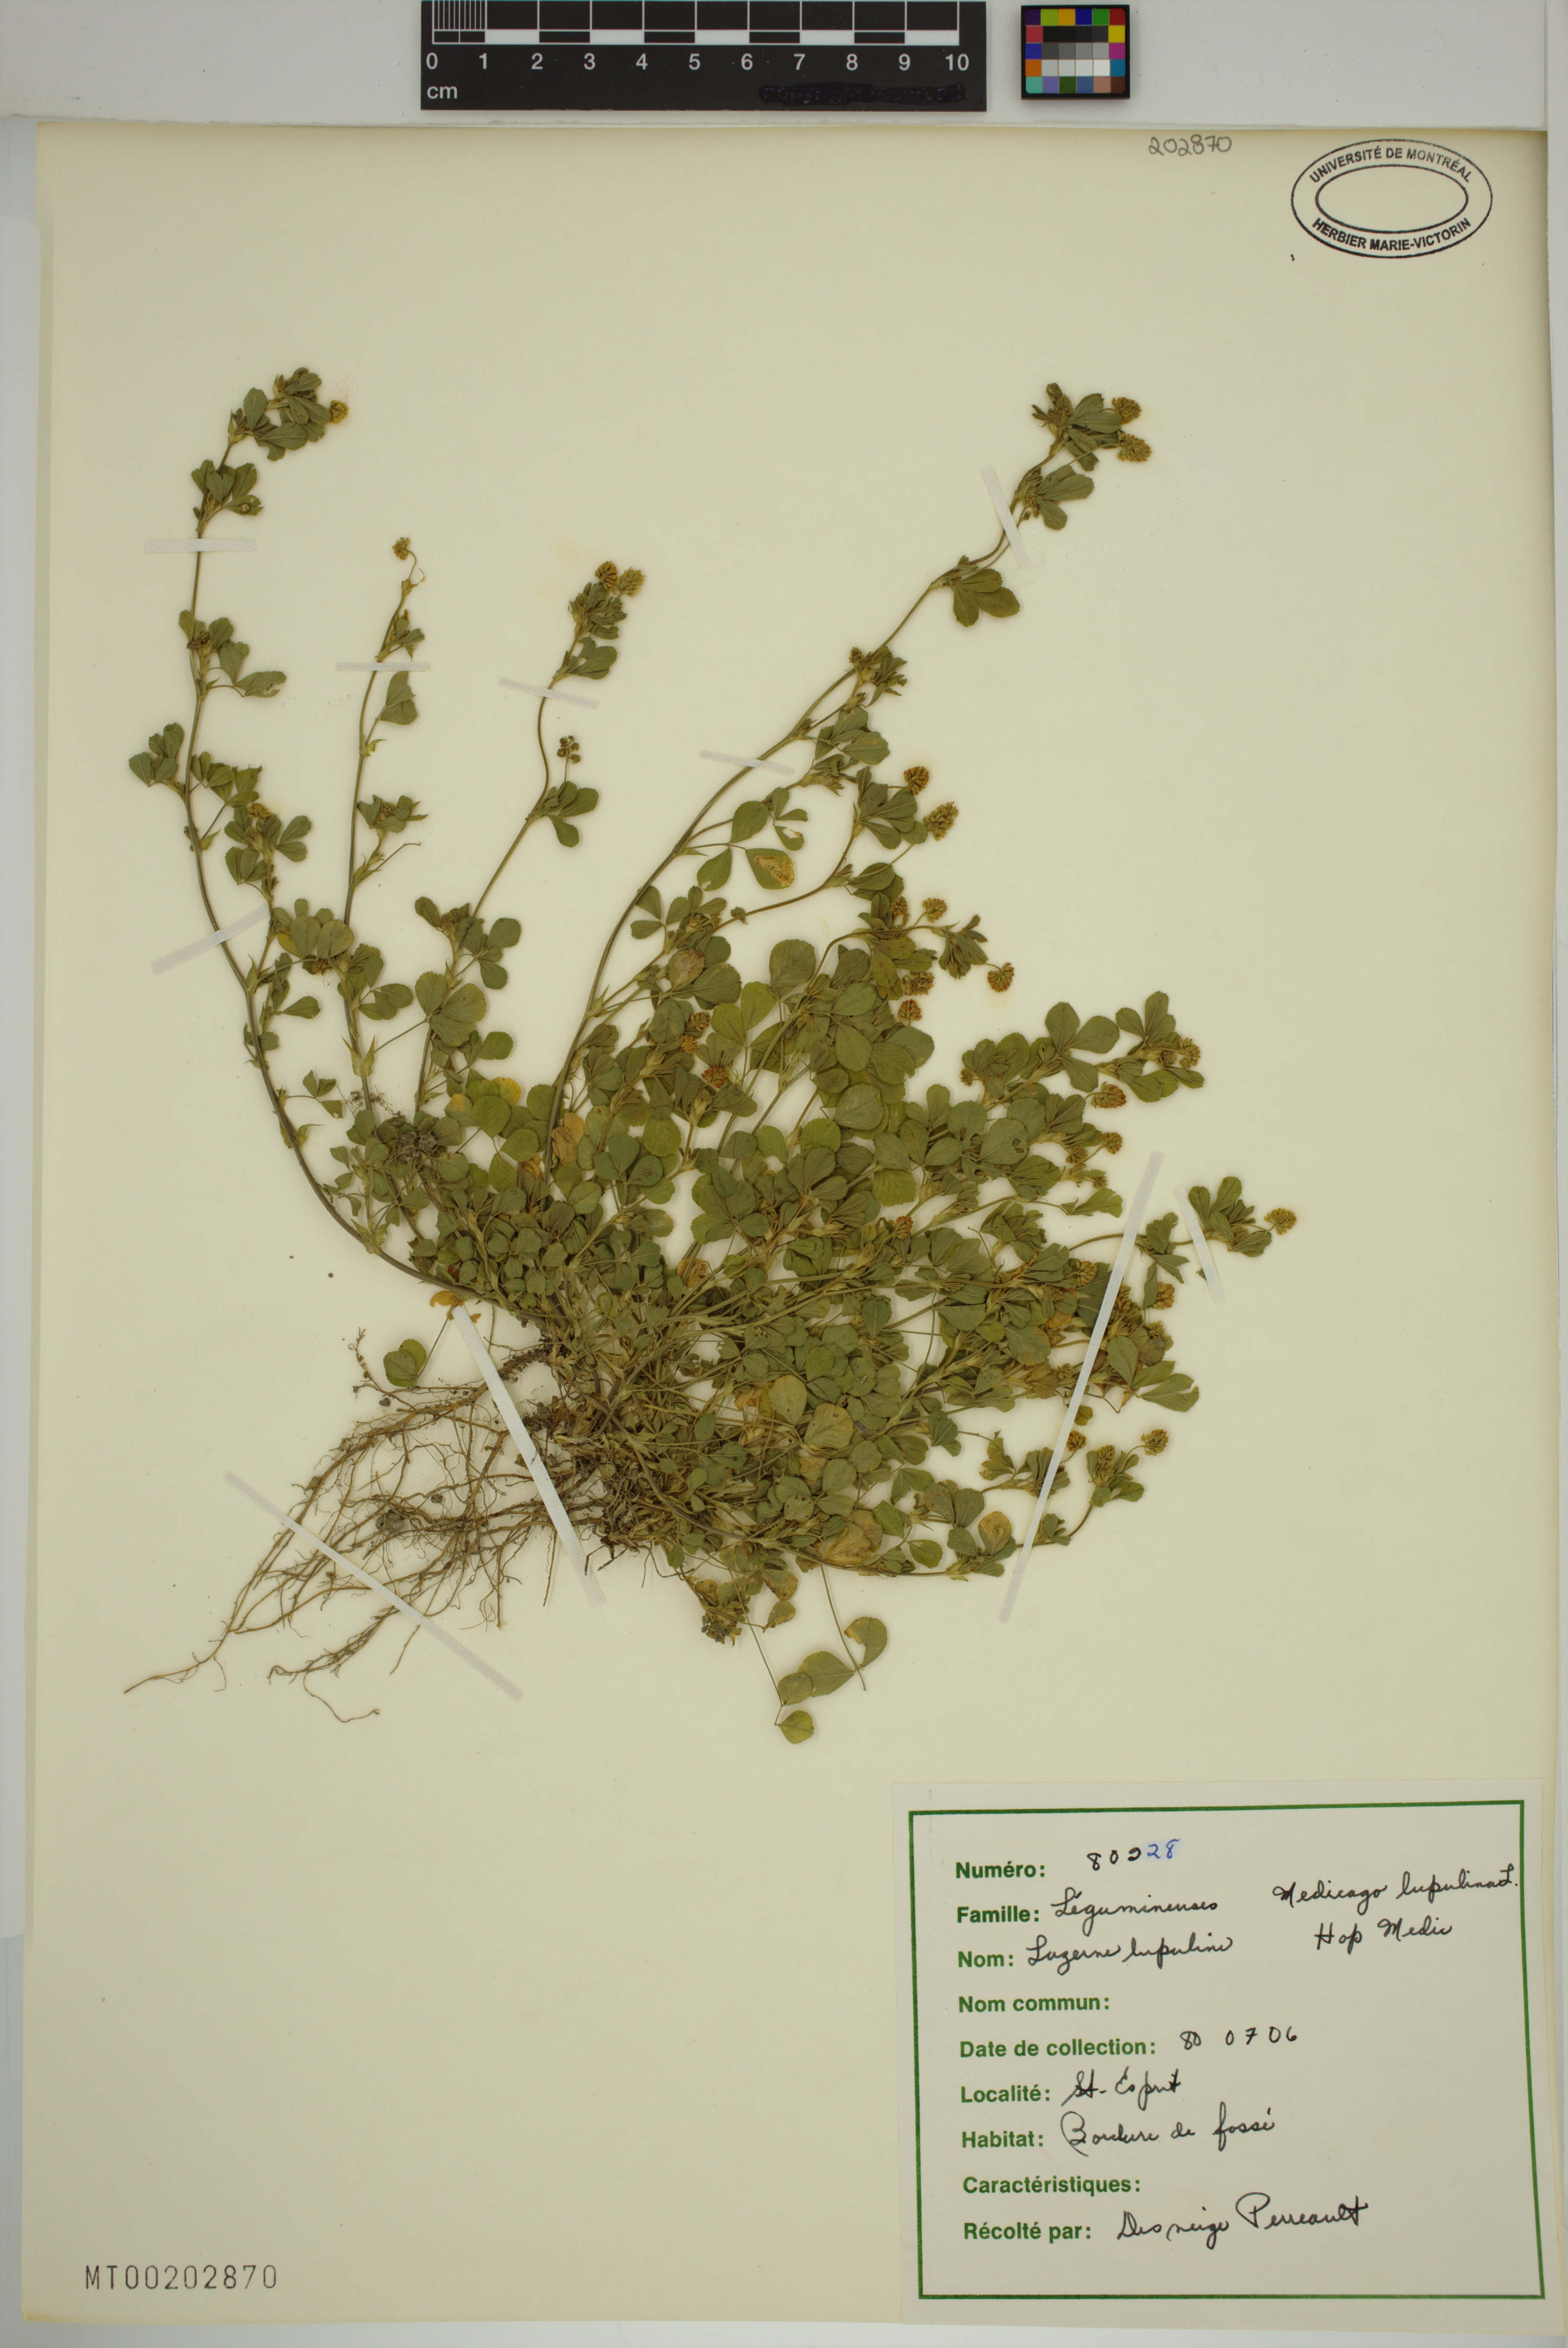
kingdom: Plantae
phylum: Tracheophyta
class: Magnoliopsida
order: Fabales
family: Fabaceae
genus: Medicago
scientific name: Medicago lupulina
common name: Black medick
